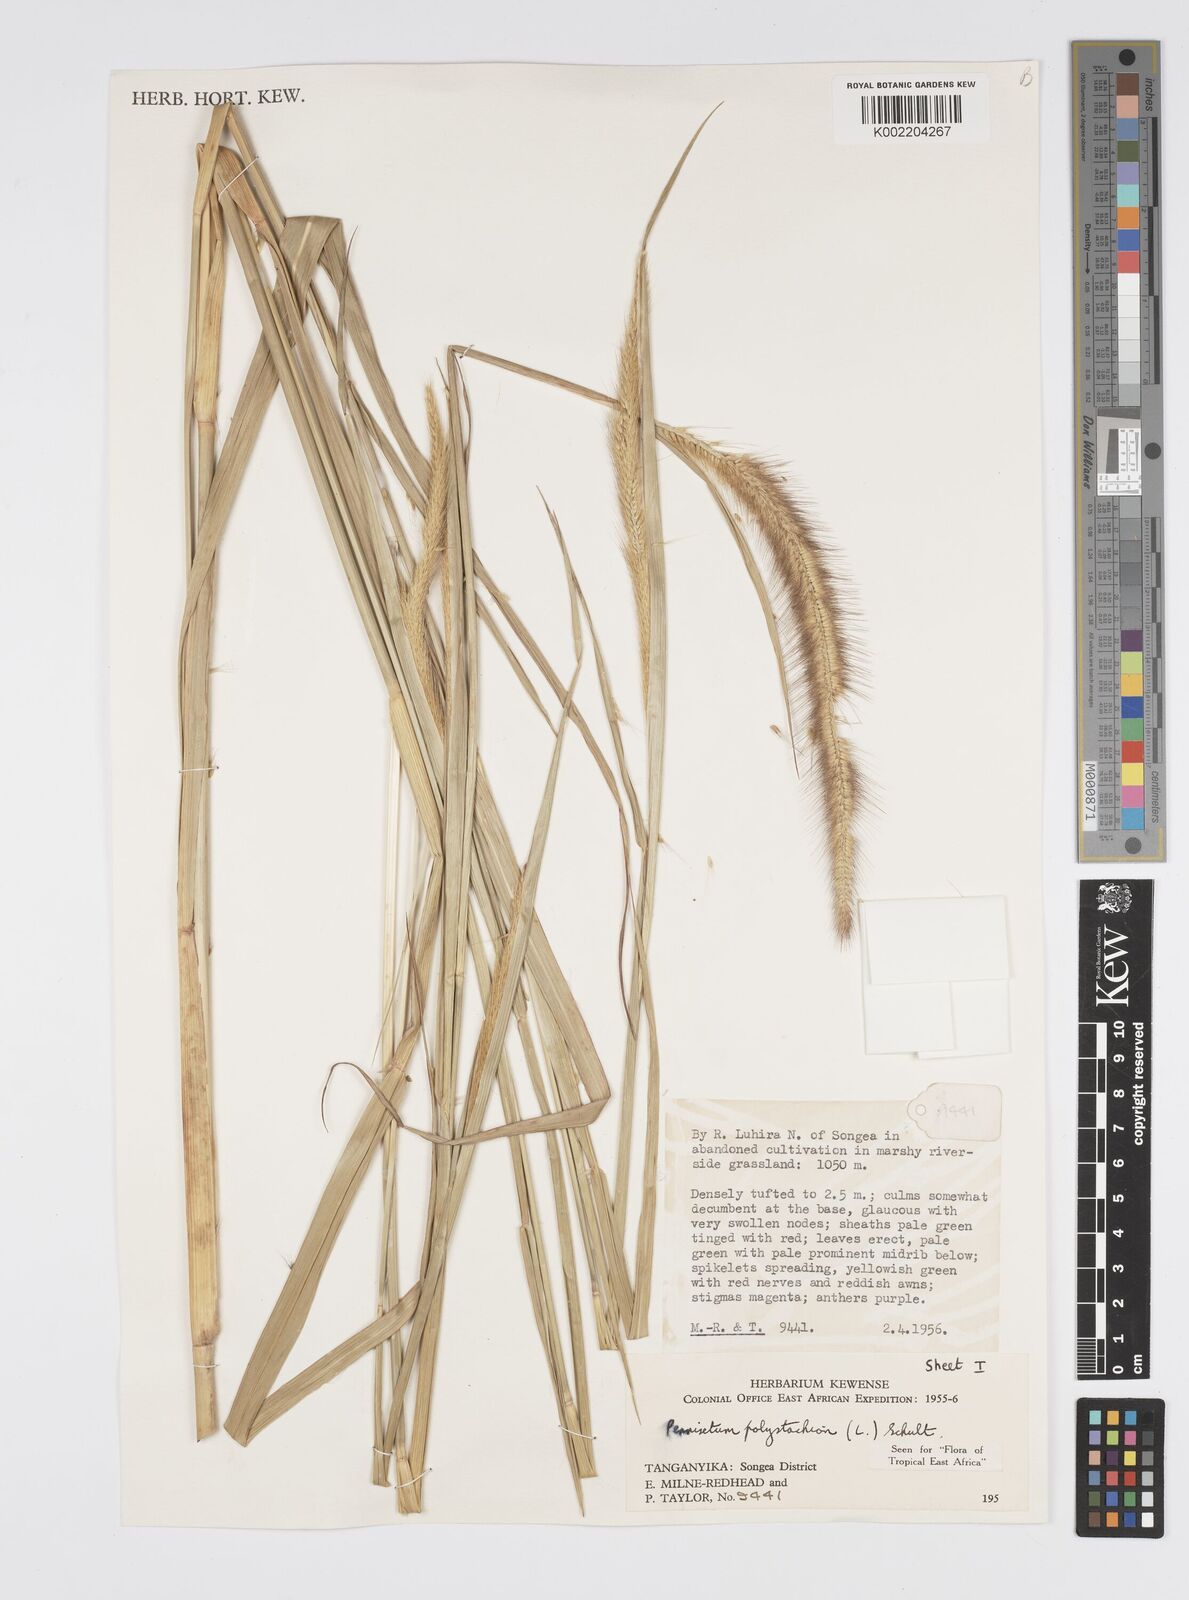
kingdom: Plantae
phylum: Tracheophyta
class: Liliopsida
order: Poales
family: Poaceae
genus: Setaria
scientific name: Setaria parviflora
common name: Knotroot bristle-grass
